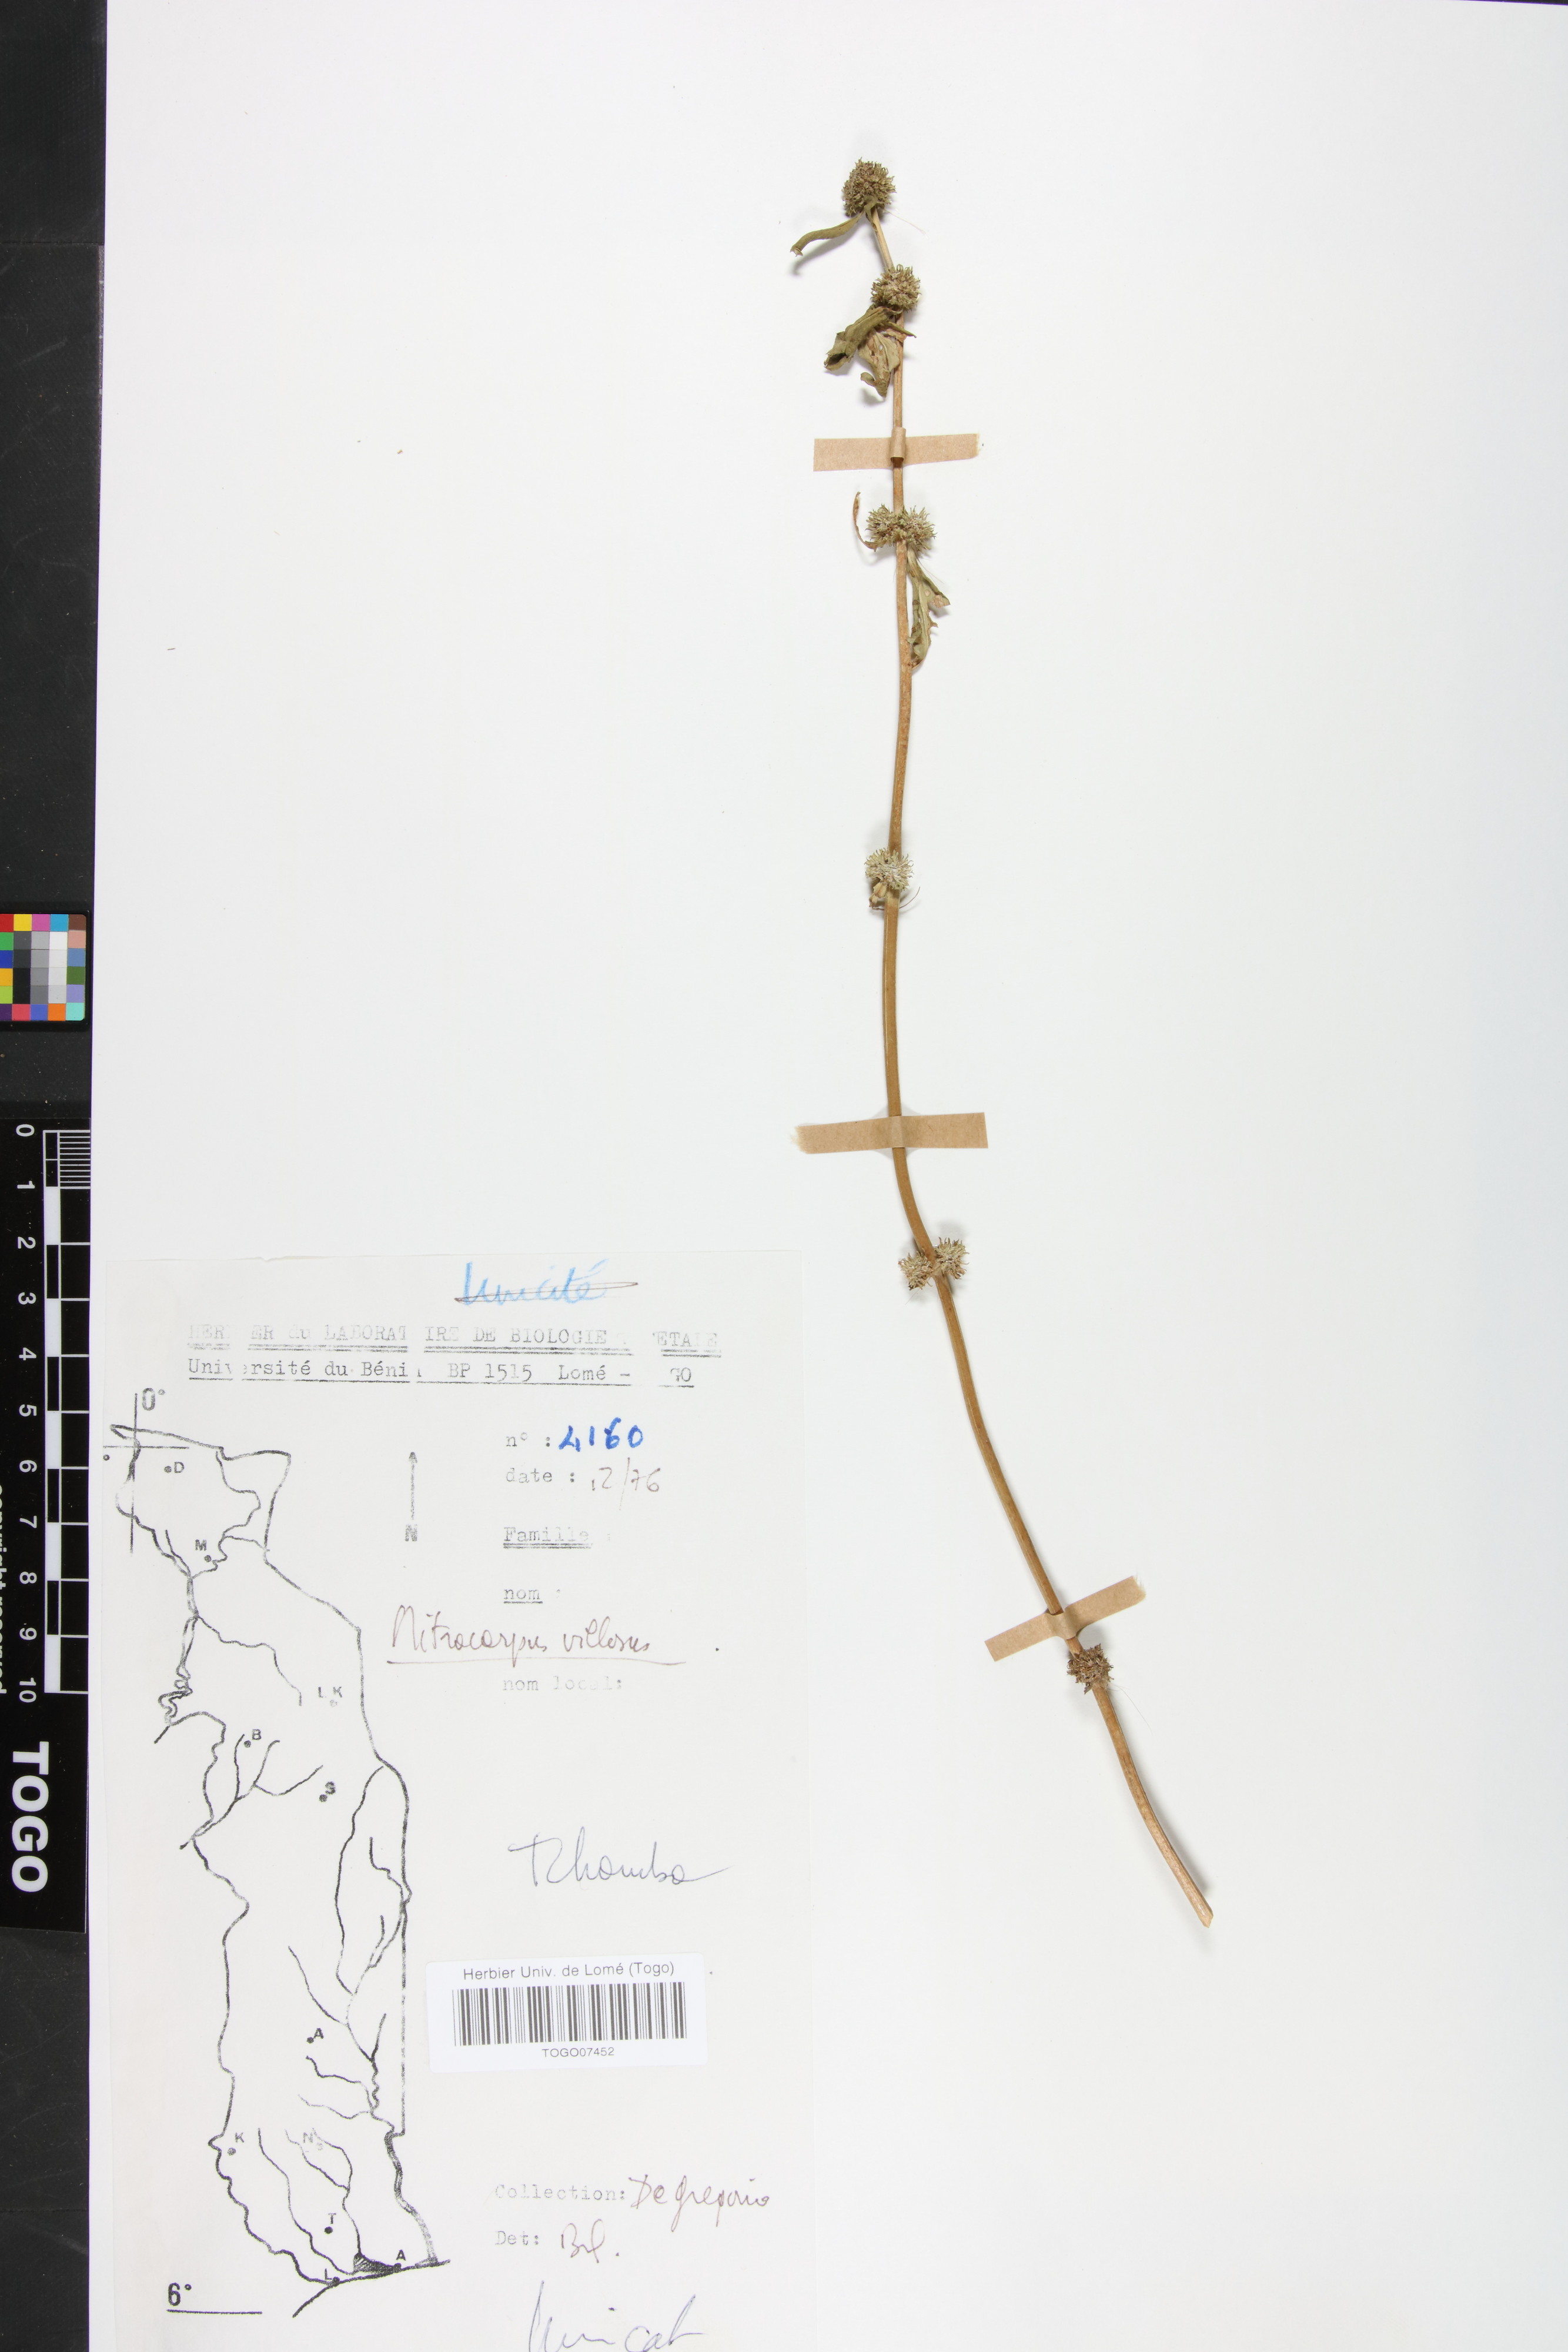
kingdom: Plantae
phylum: Tracheophyta
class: Magnoliopsida
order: Gentianales
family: Rubiaceae
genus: Mitracarpus
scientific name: Mitracarpus hirtus
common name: Tropical girdlepod
